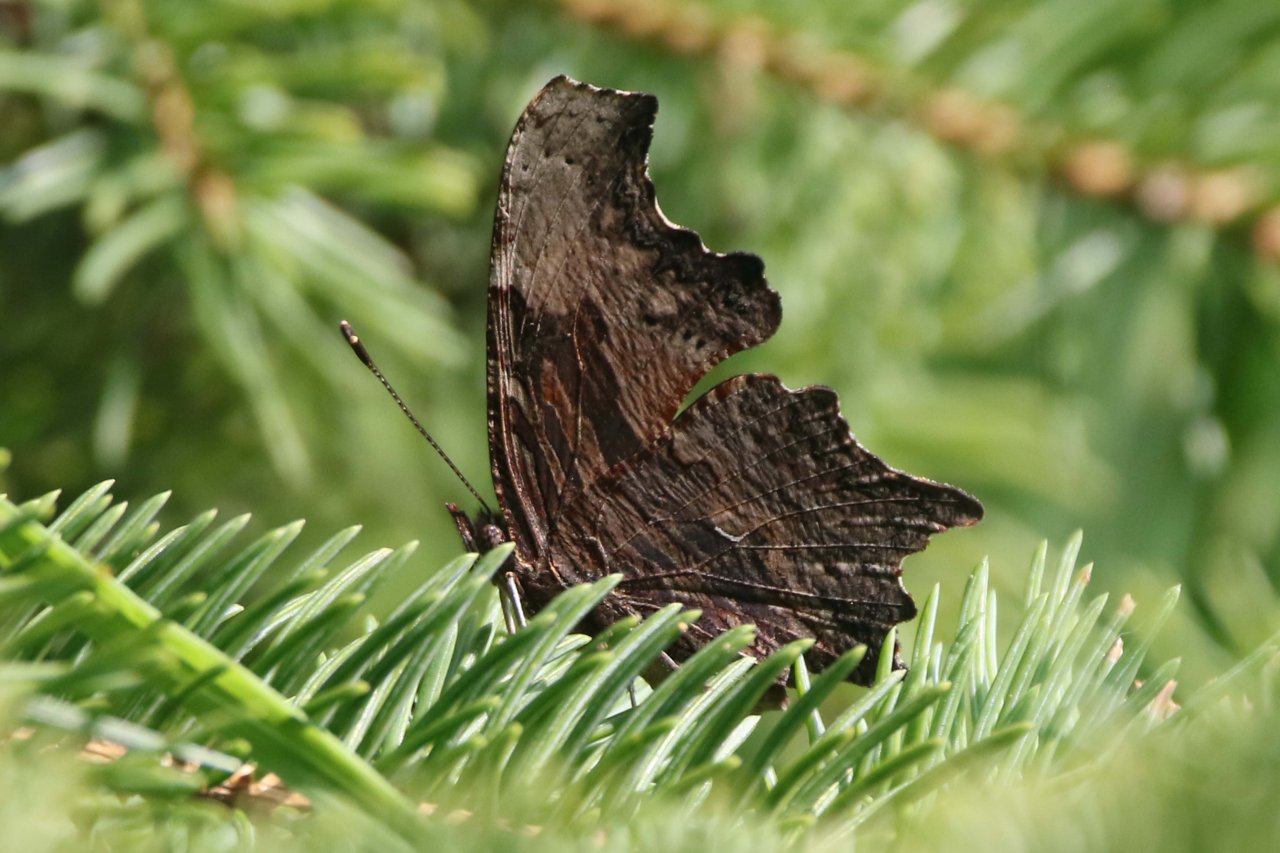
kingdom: Animalia
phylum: Arthropoda
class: Insecta
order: Lepidoptera
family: Nymphalidae
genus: Polygonia
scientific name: Polygonia progne
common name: Gray Comma
